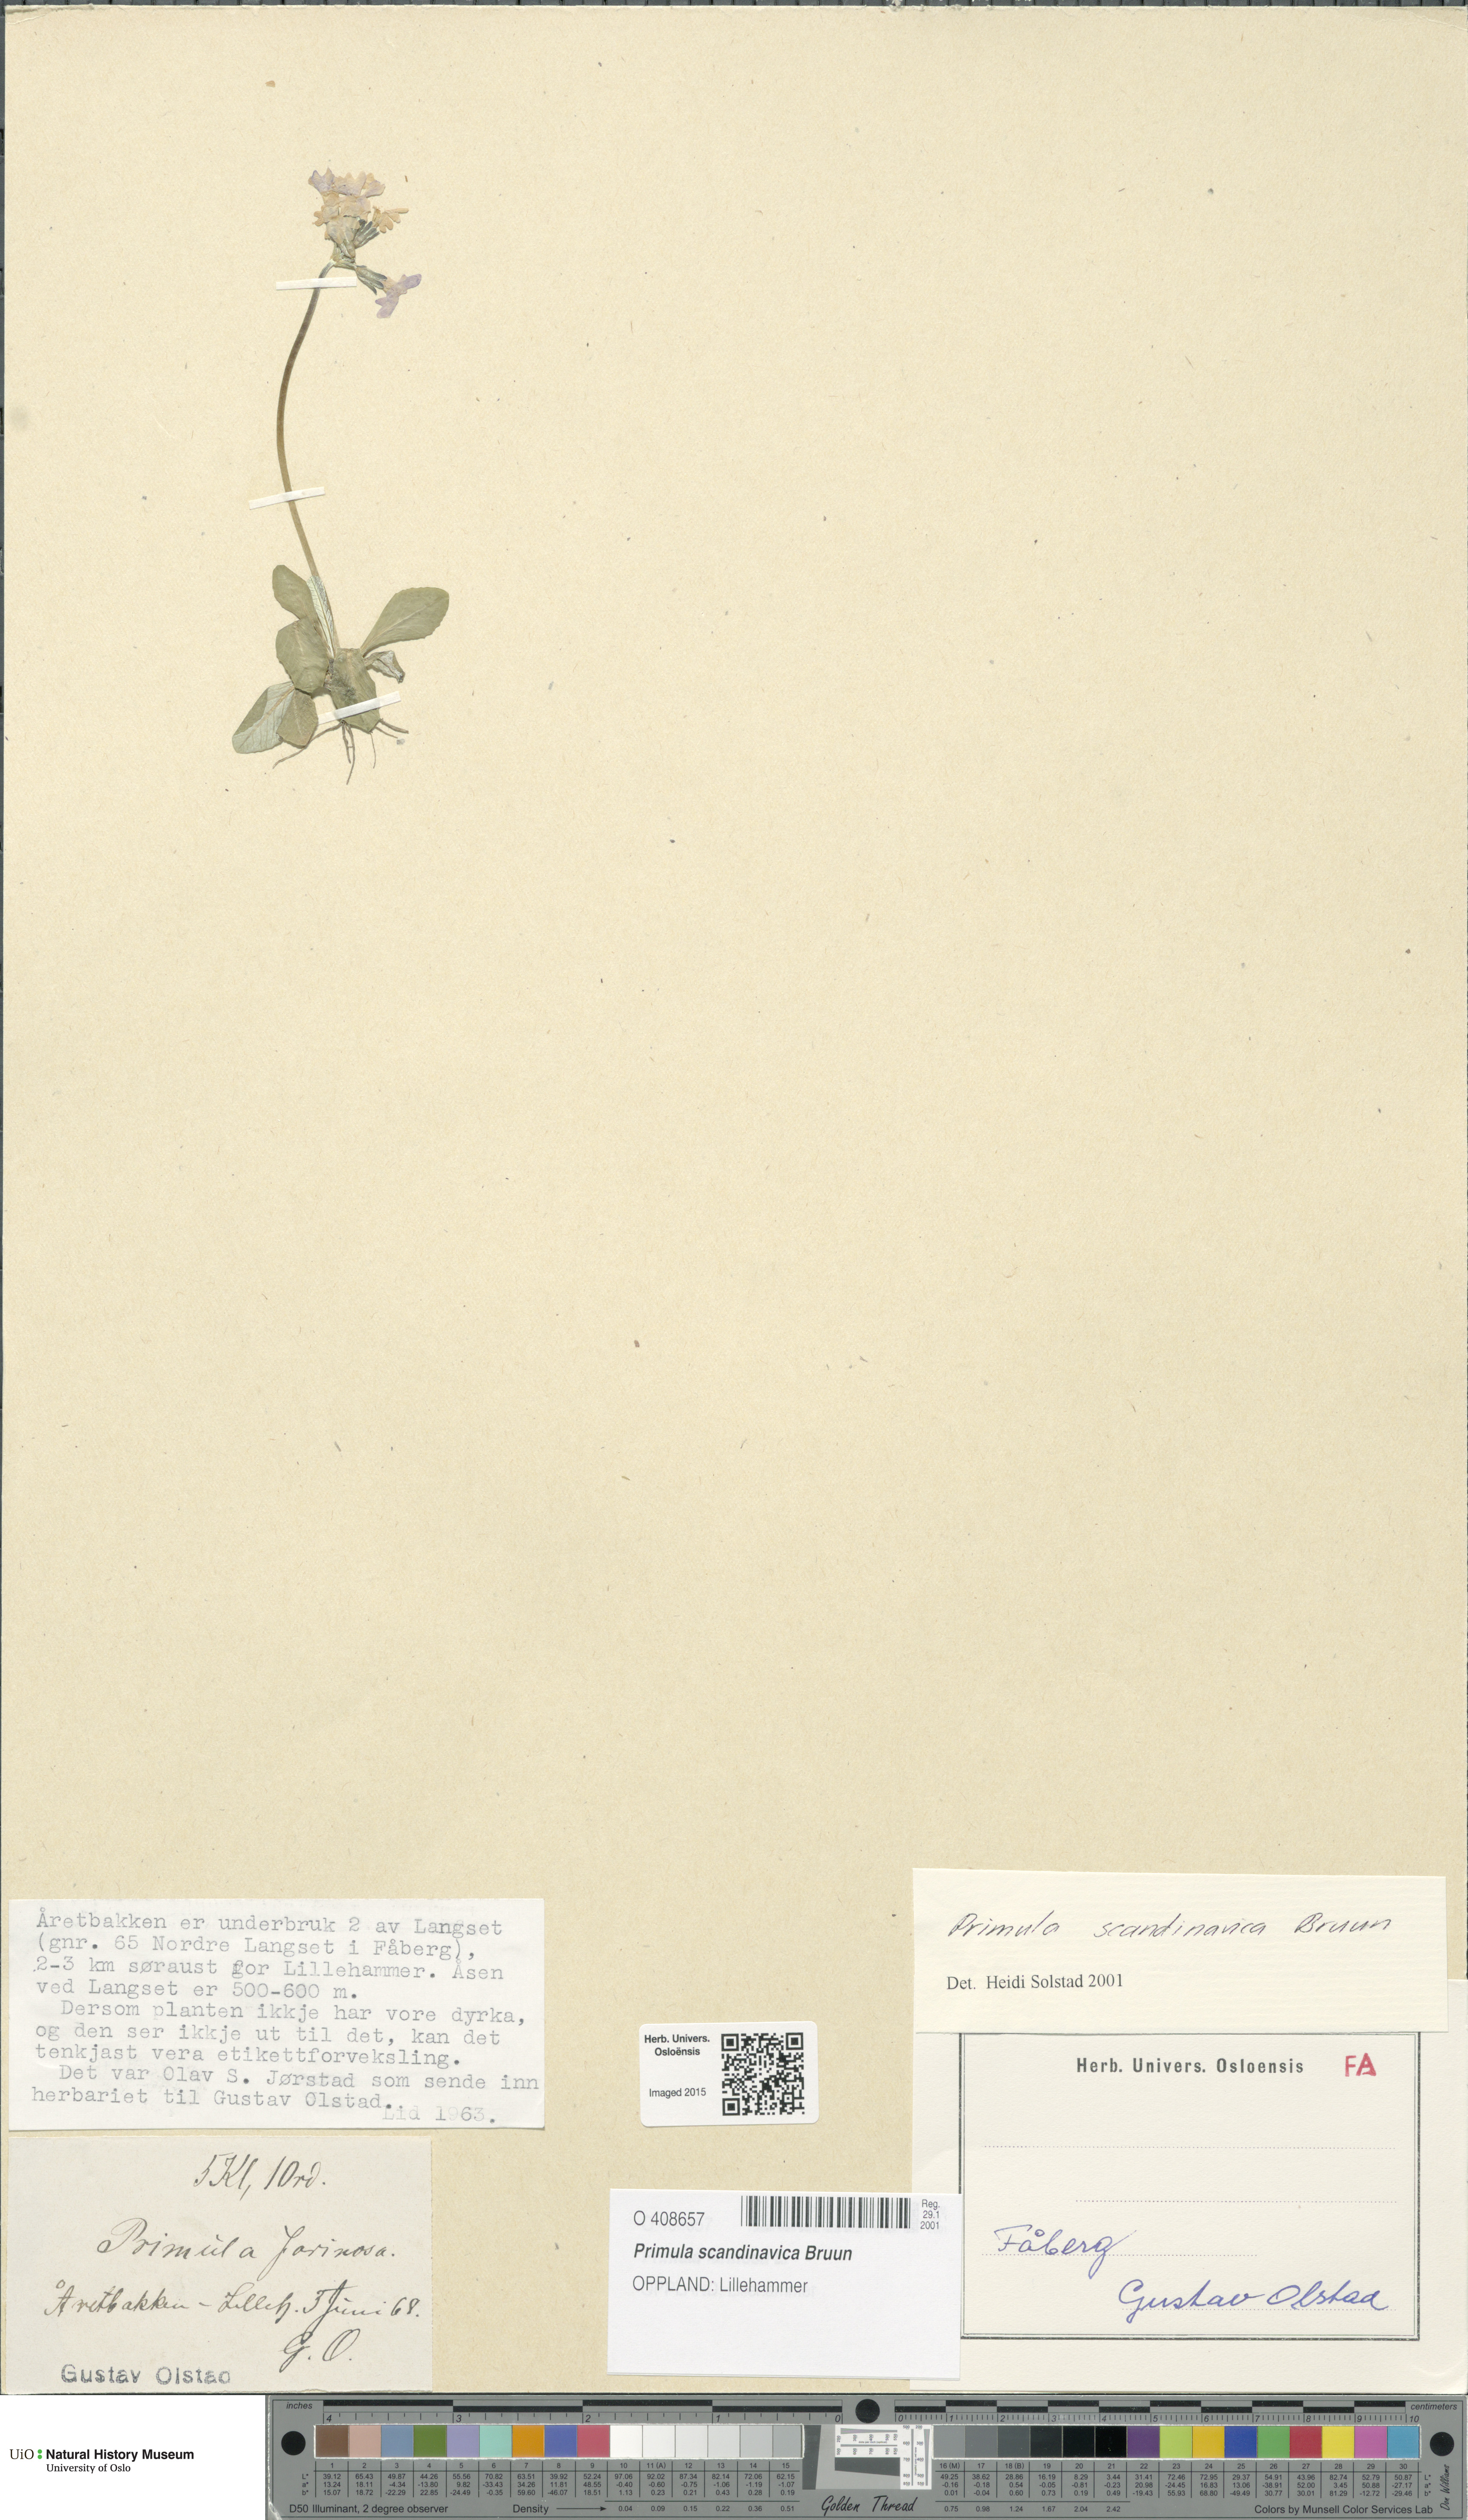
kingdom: Plantae
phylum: Tracheophyta
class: Magnoliopsida
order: Ericales
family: Primulaceae
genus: Primula
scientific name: Primula scandinavica
